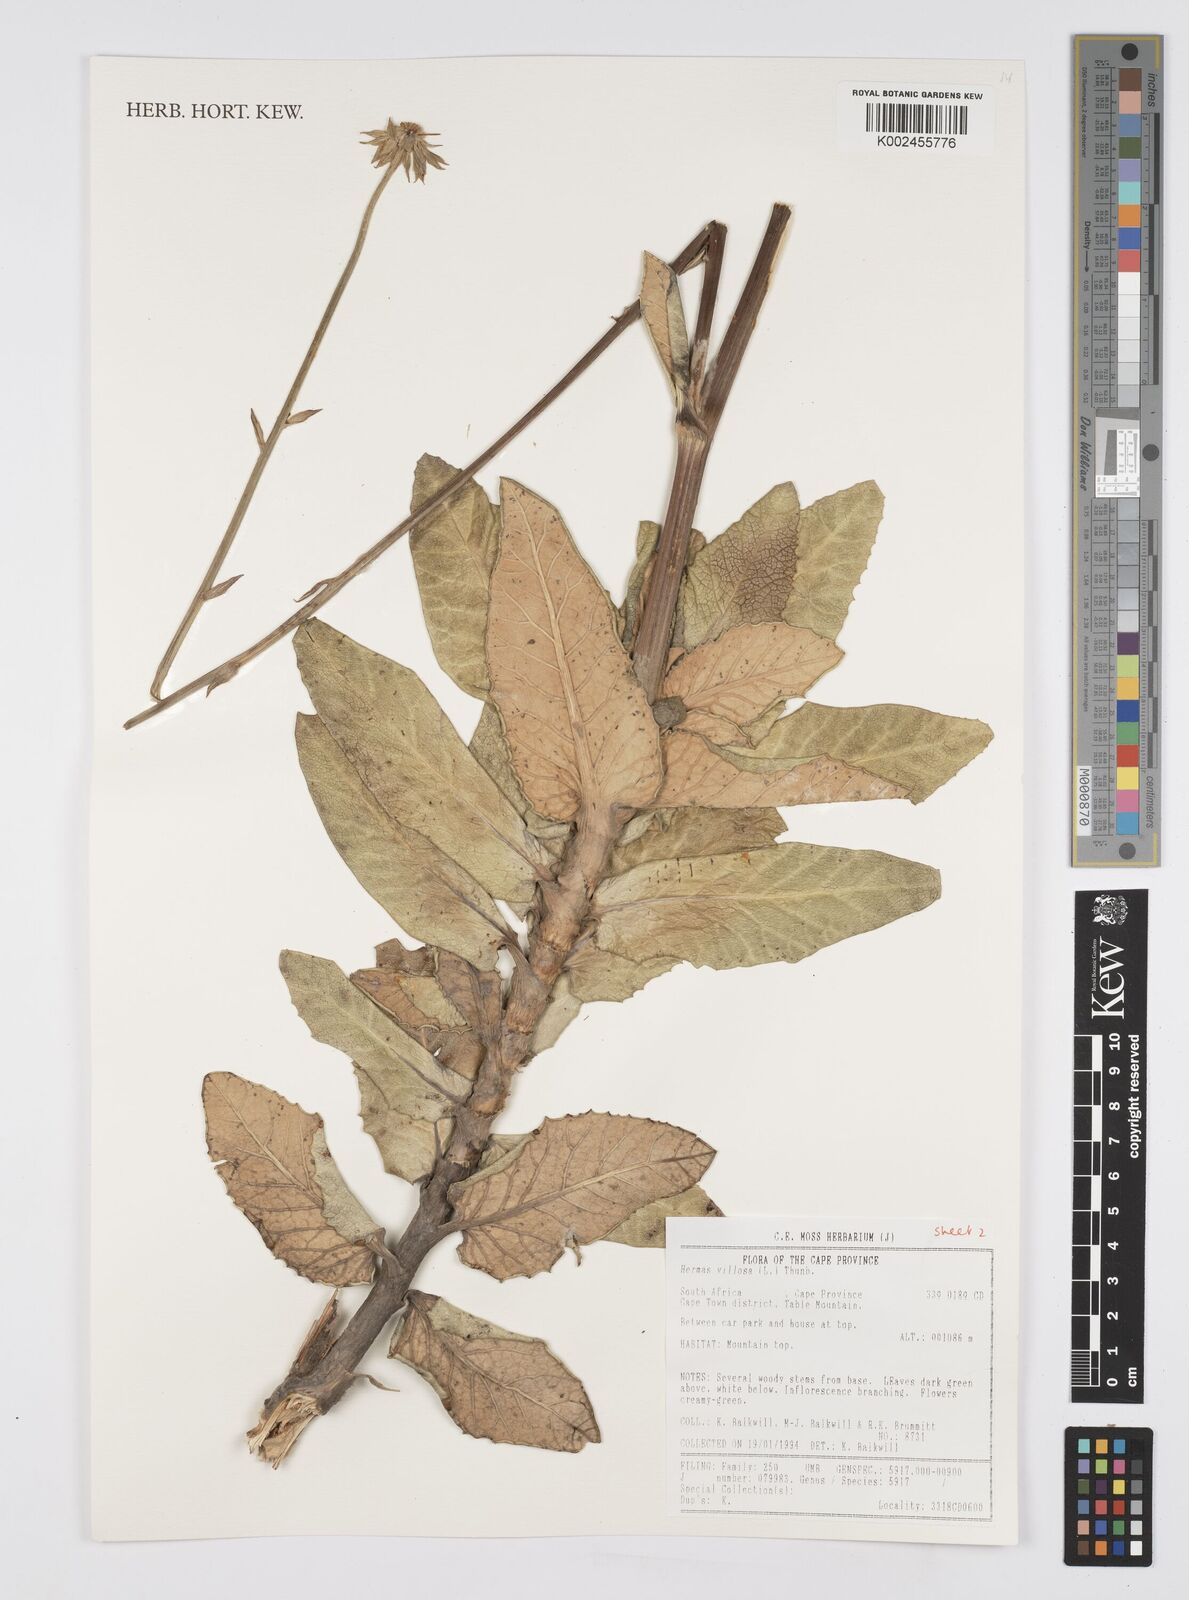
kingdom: Plantae
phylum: Tracheophyta
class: Magnoliopsida
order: Apiales
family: Apiaceae
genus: Hermas
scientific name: Hermas villosa
